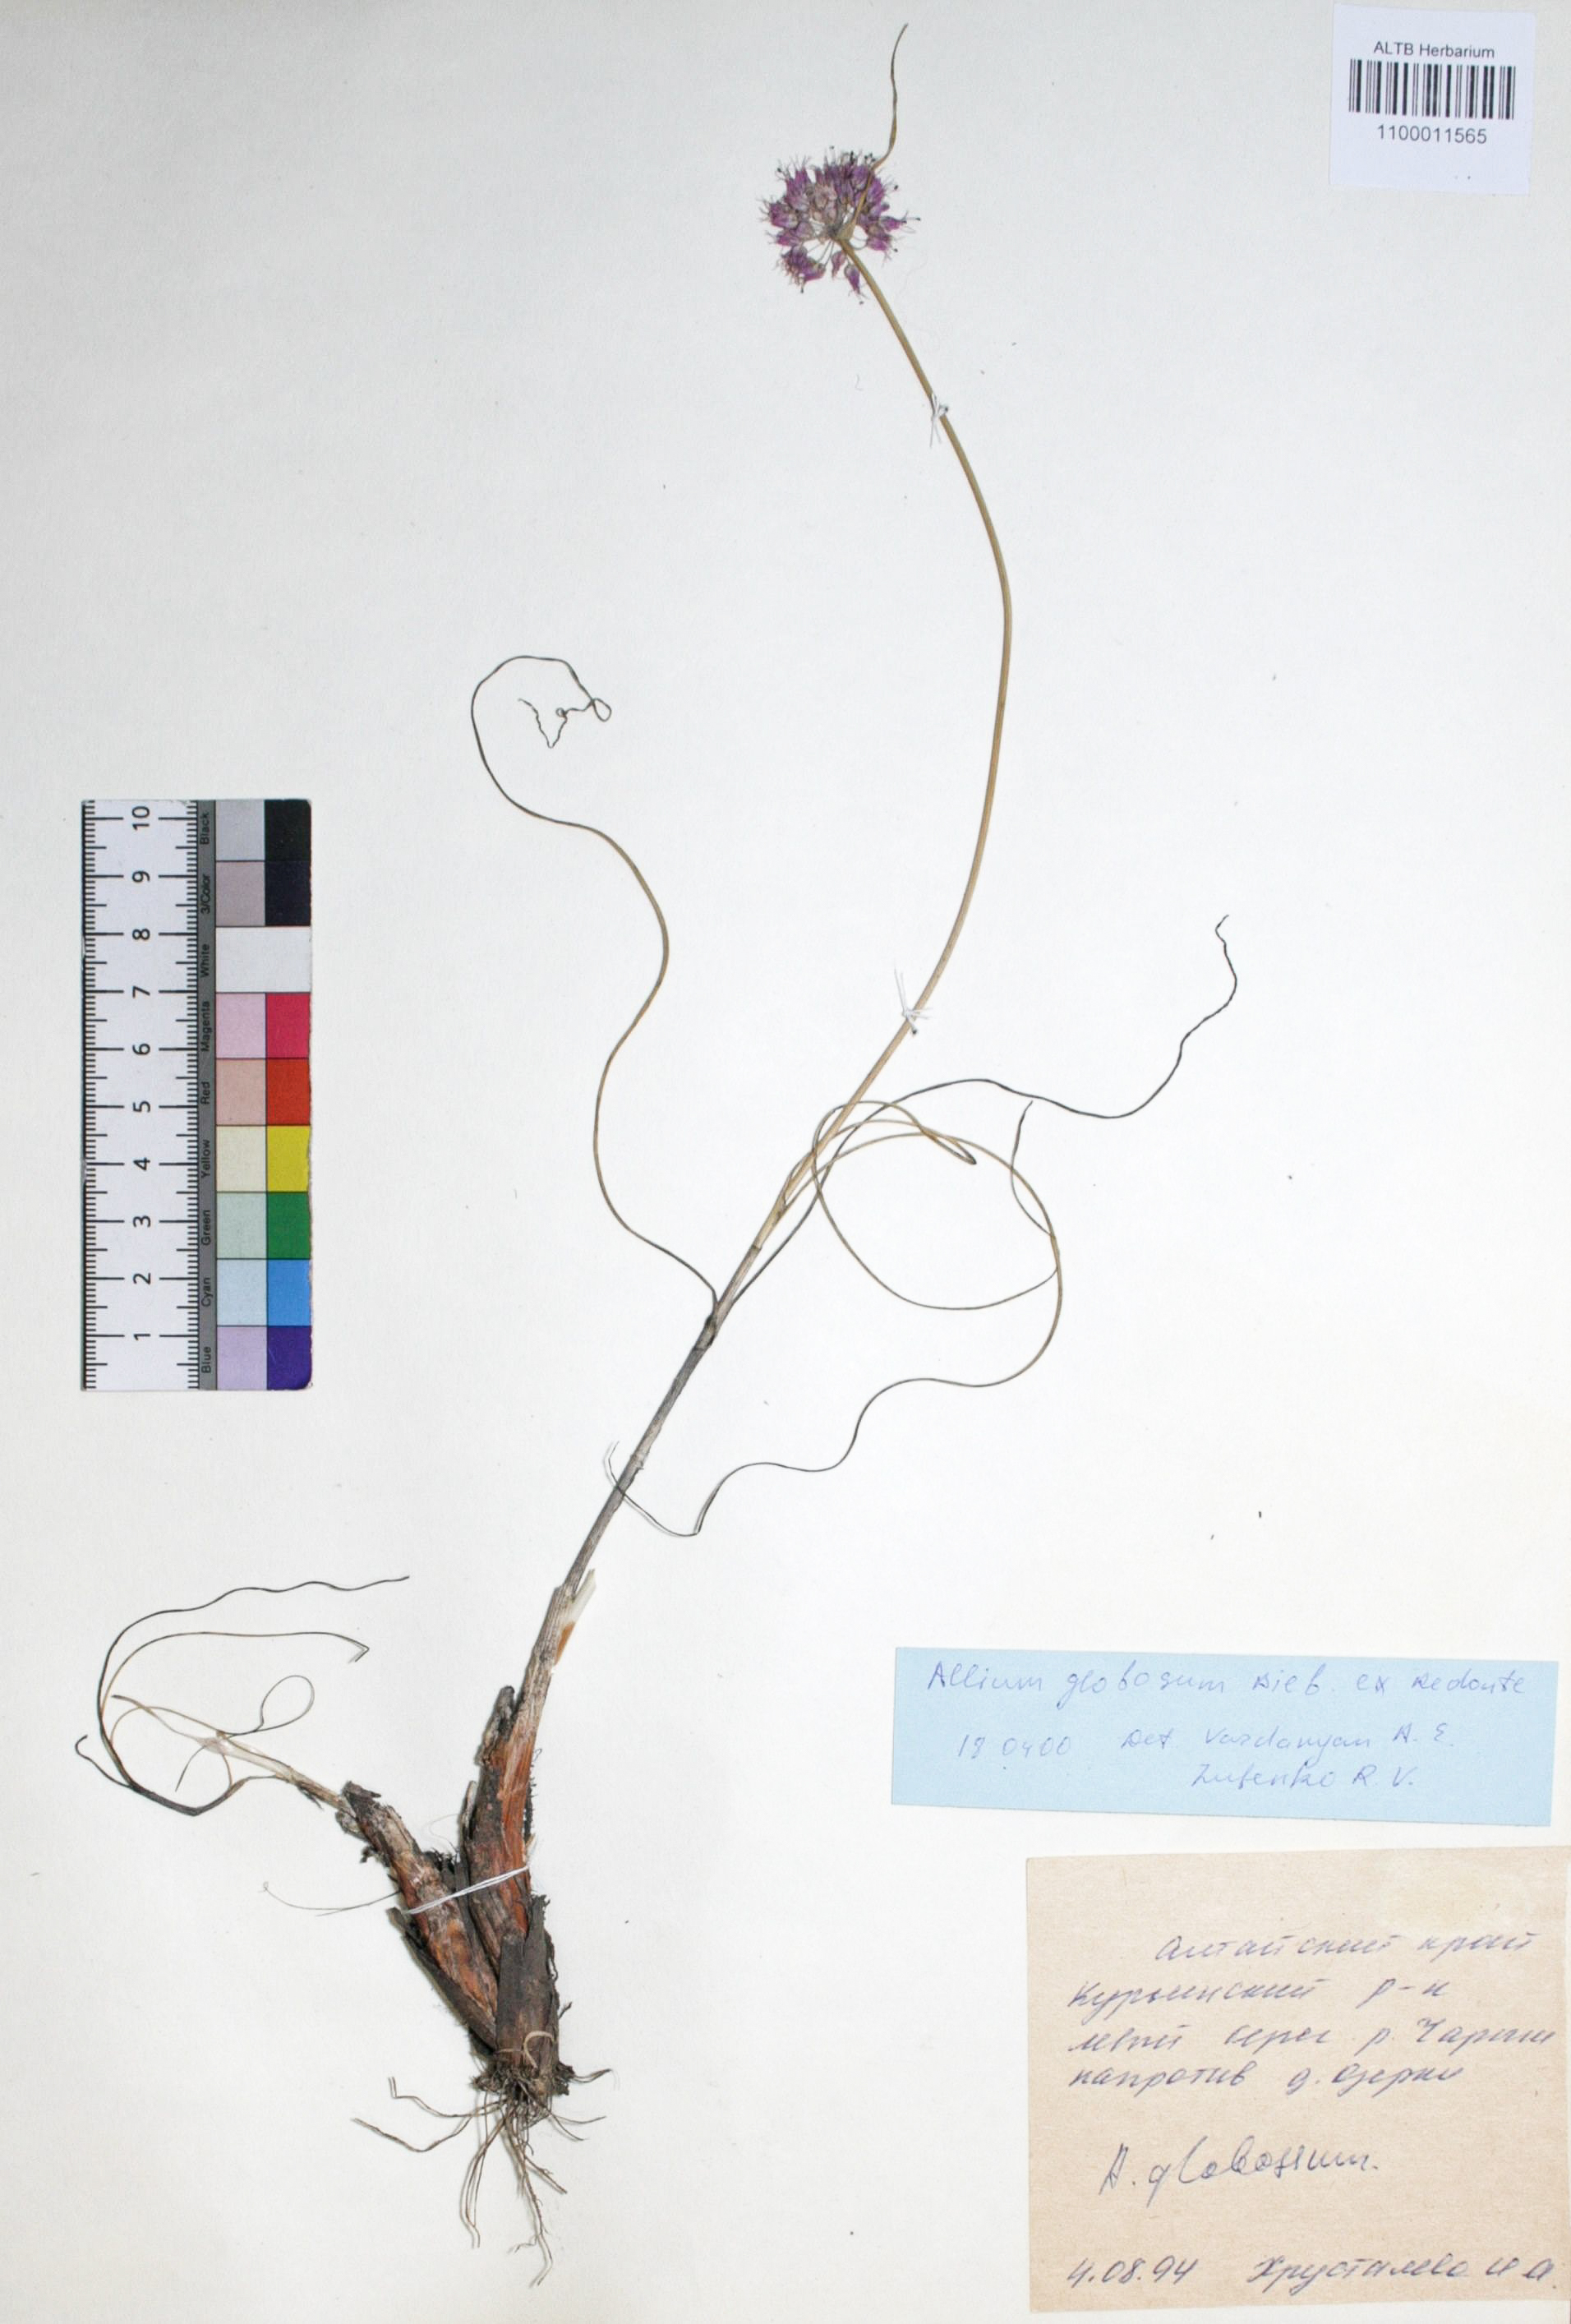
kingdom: Plantae
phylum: Tracheophyta
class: Liliopsida
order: Asparagales
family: Amaryllidaceae
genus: Allium
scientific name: Allium saxatile
